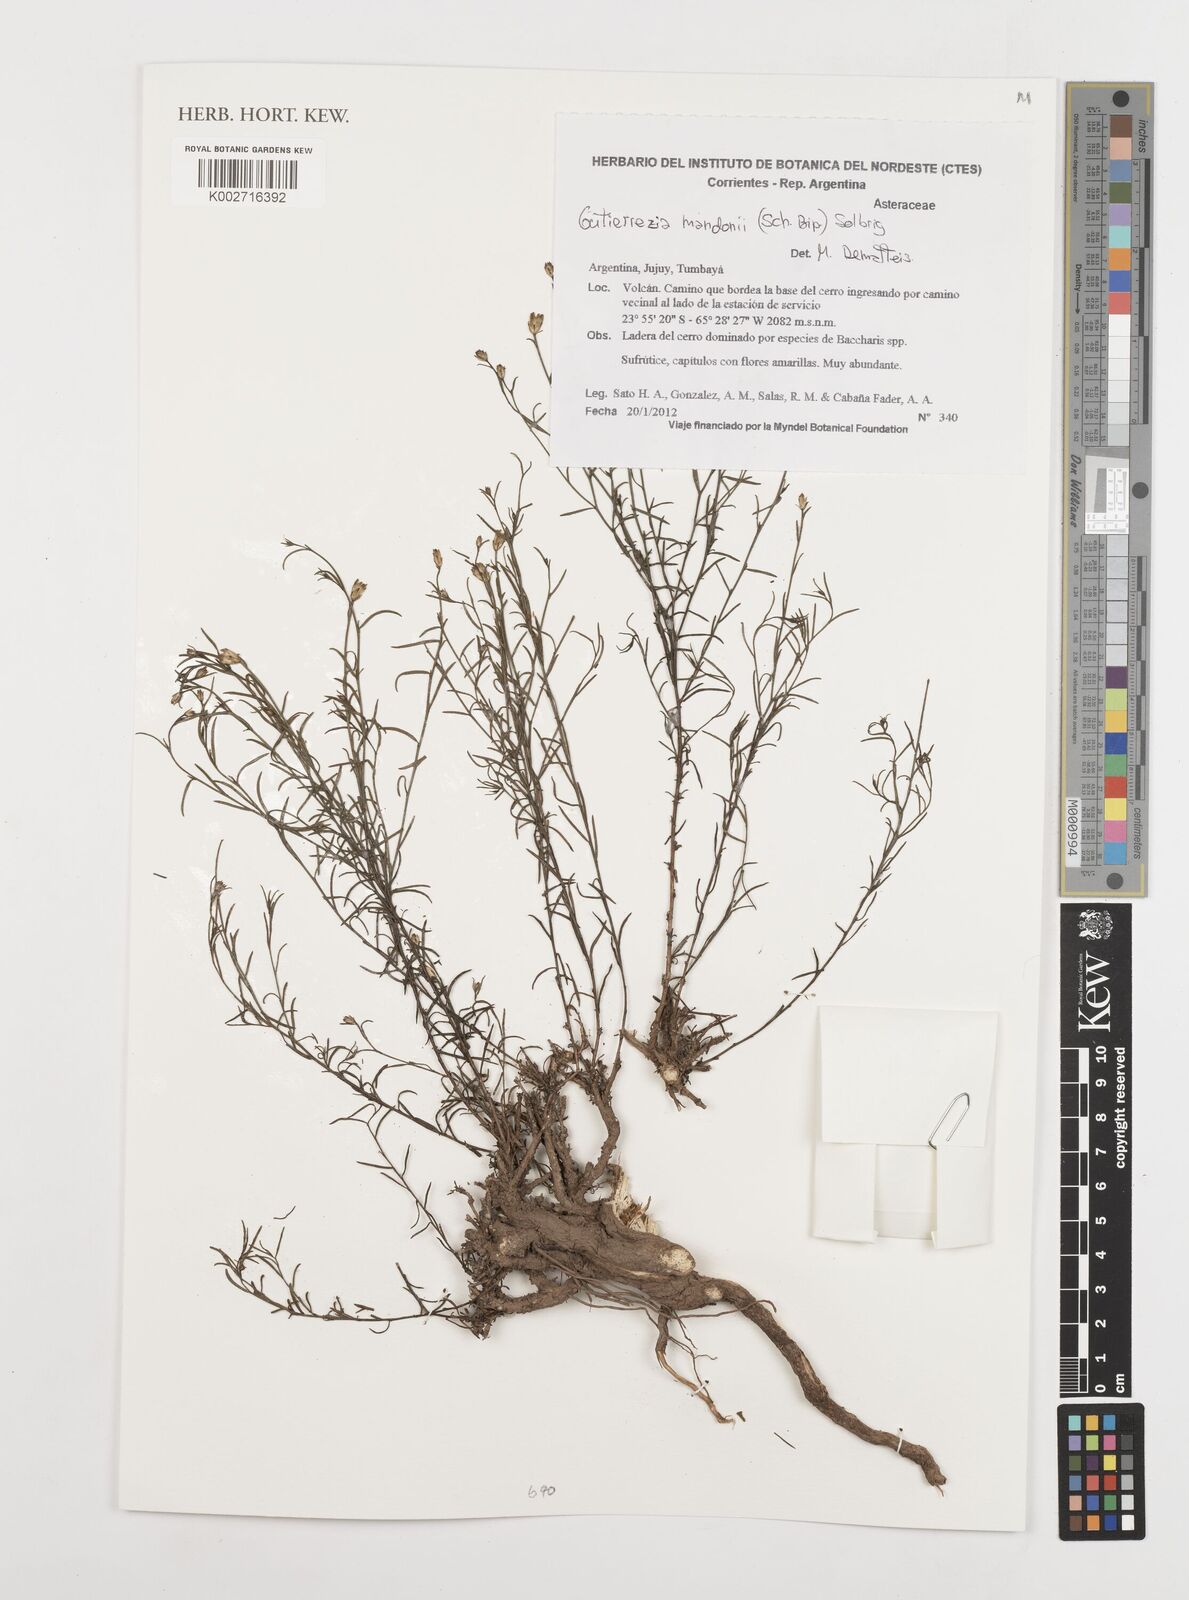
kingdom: Plantae
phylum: Tracheophyta
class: Magnoliopsida
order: Asterales
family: Asteraceae
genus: Gutierrezia
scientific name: Gutierrezia mandonii
